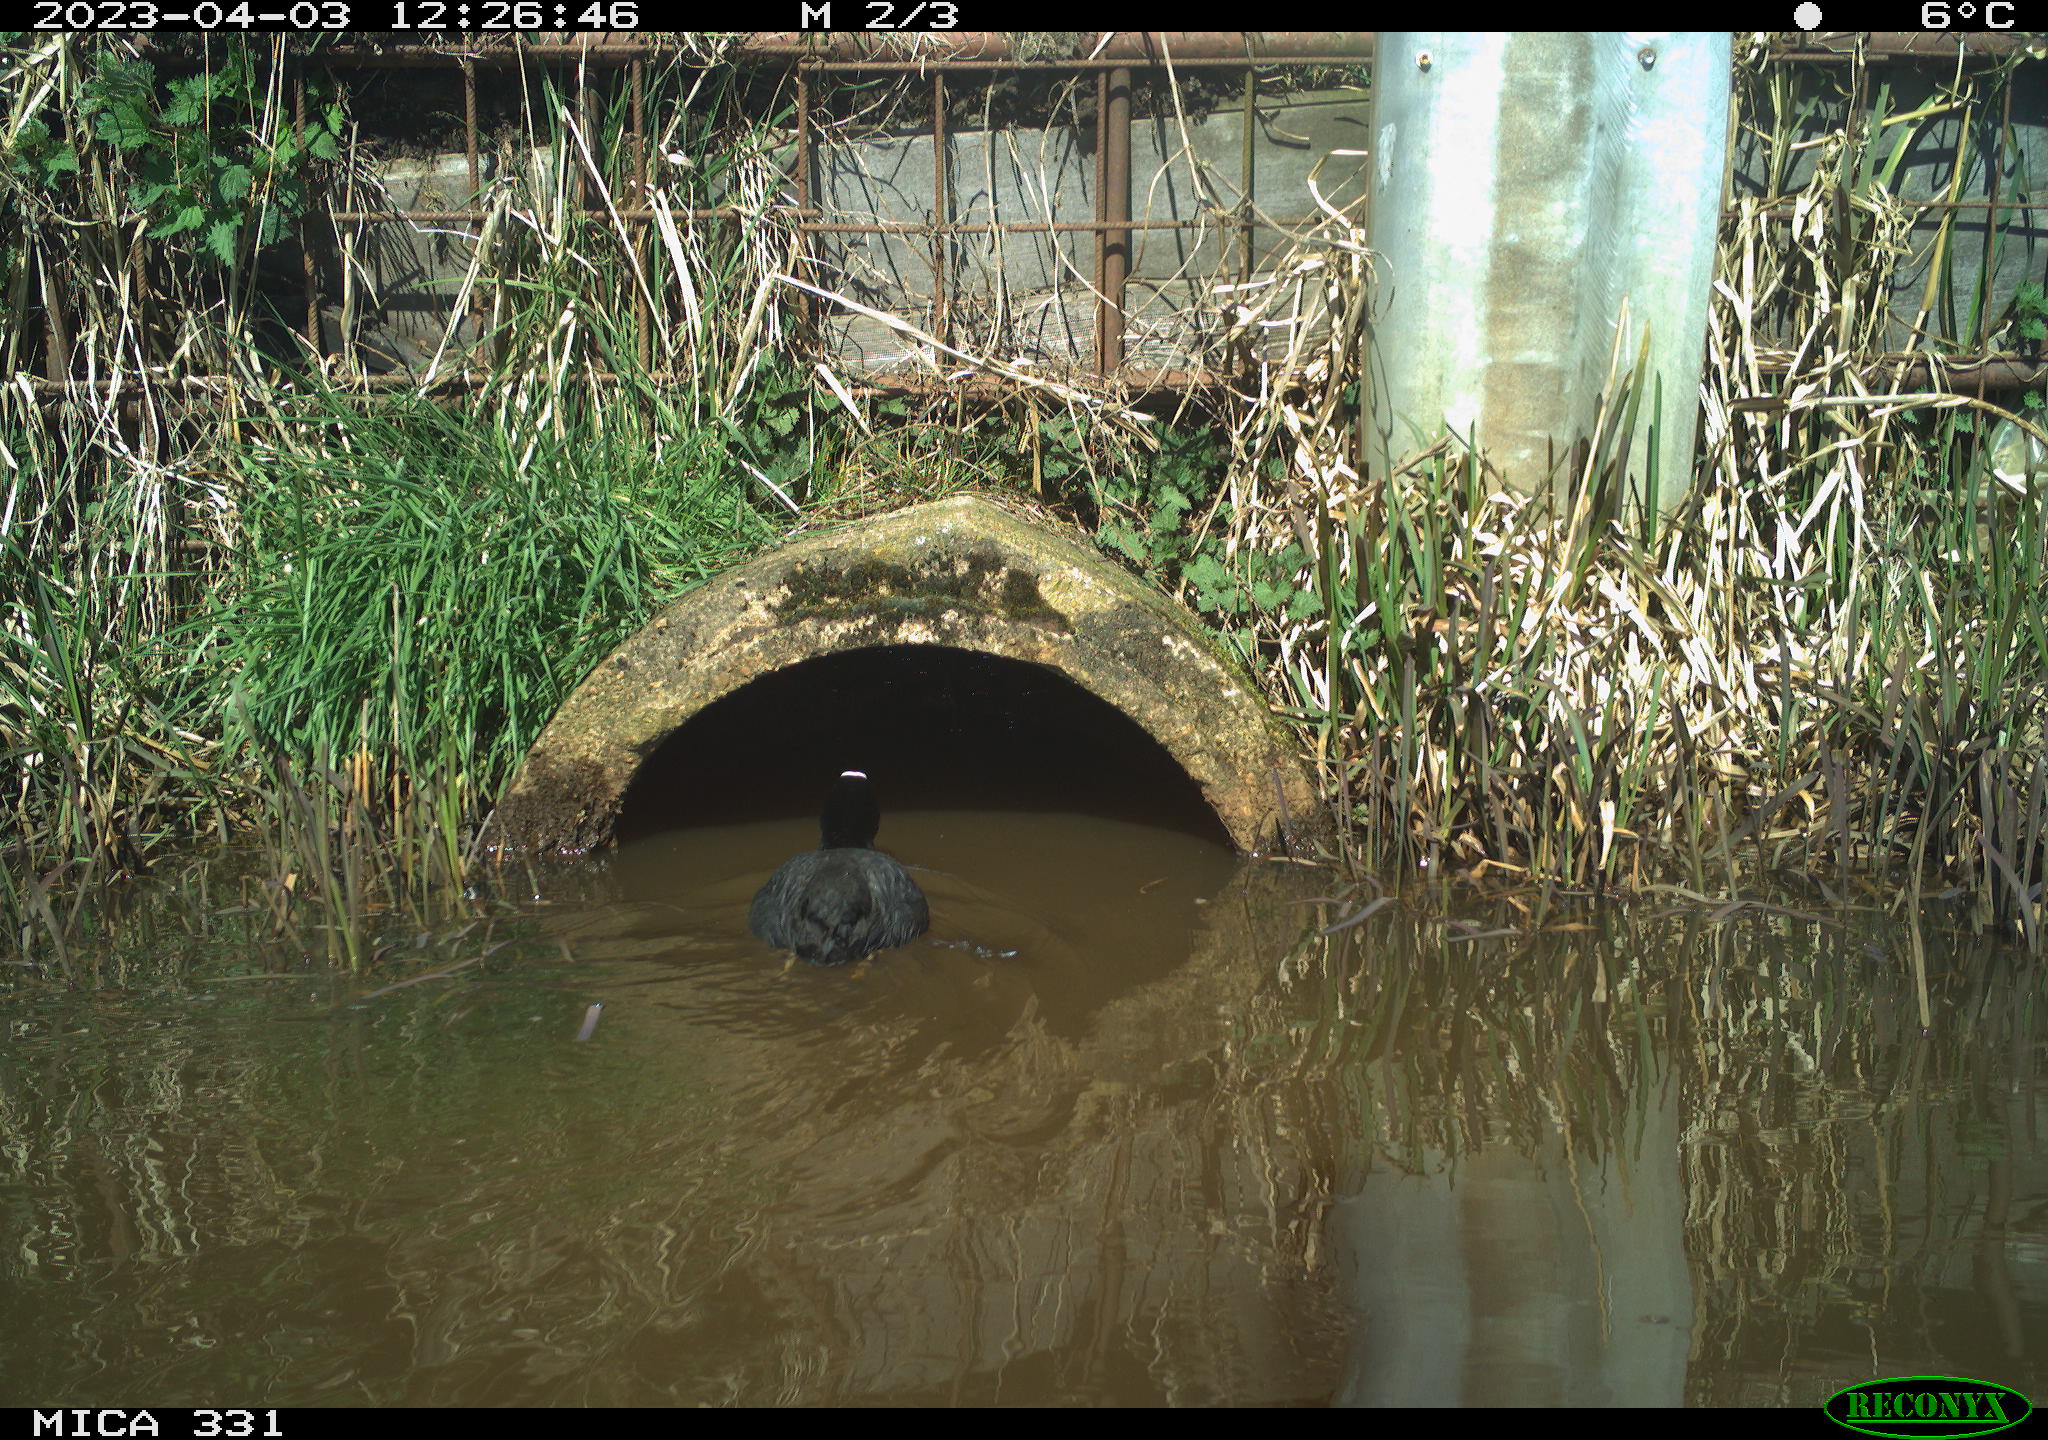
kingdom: Animalia
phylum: Chordata
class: Aves
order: Gruiformes
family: Rallidae
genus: Fulica
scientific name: Fulica atra
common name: Eurasian coot
